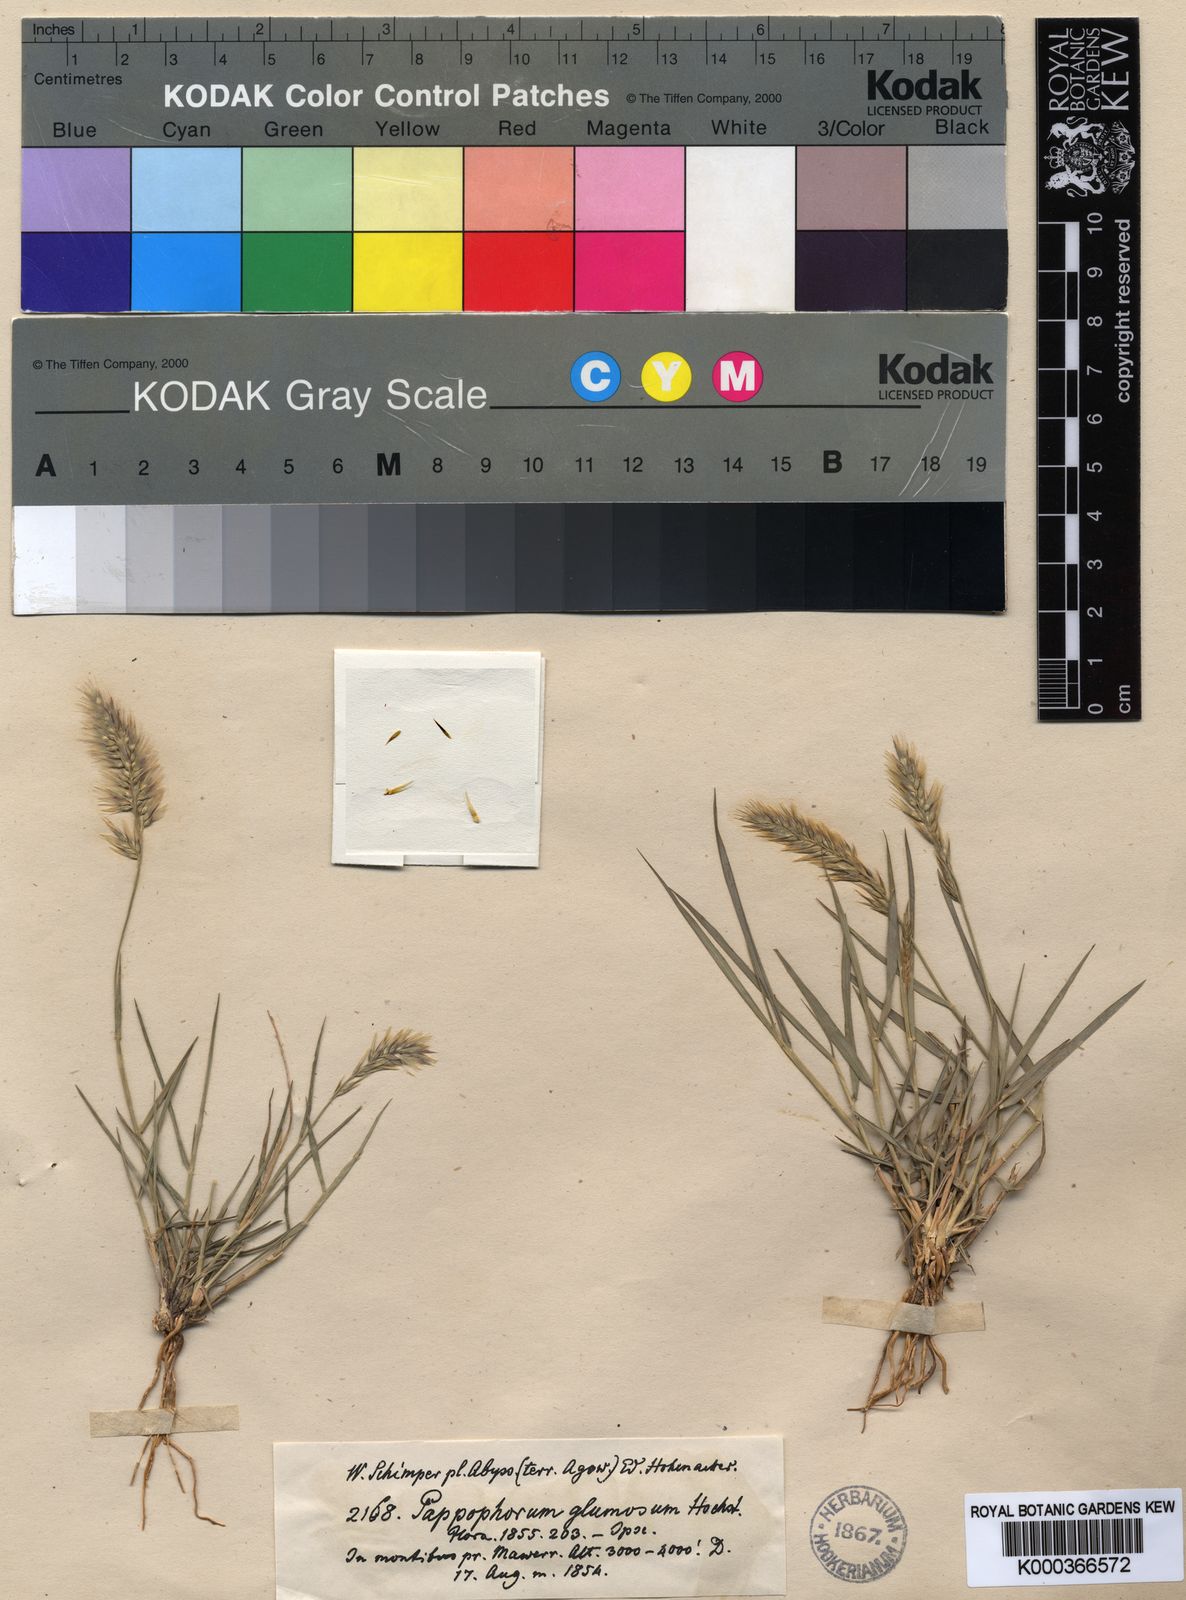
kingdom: Plantae
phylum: Tracheophyta
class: Liliopsida
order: Poales
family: Poaceae
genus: Enneapogon
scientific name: Enneapogon persicus
